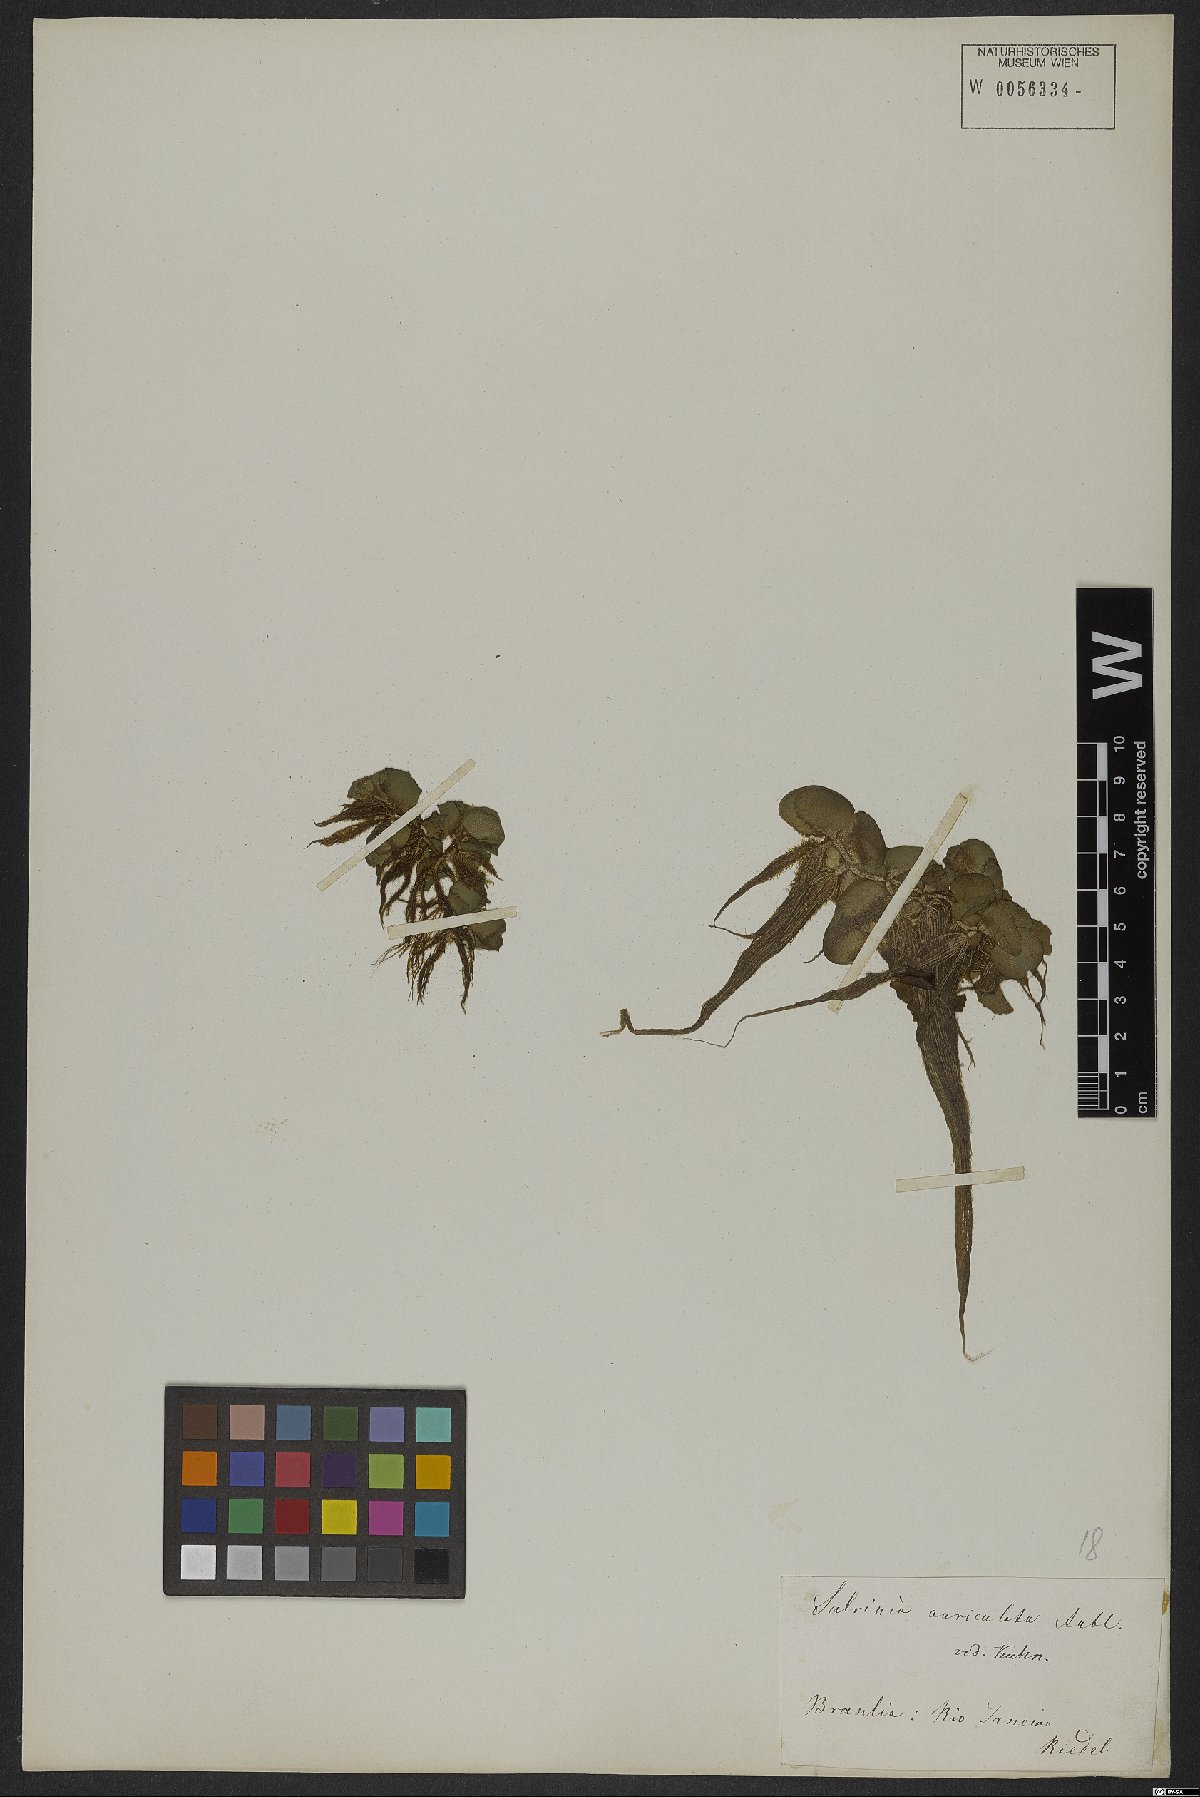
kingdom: Plantae
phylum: Tracheophyta
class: Polypodiopsida
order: Salviniales
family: Salviniaceae
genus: Salvinia
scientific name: Salvinia auriculata
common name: African payal
